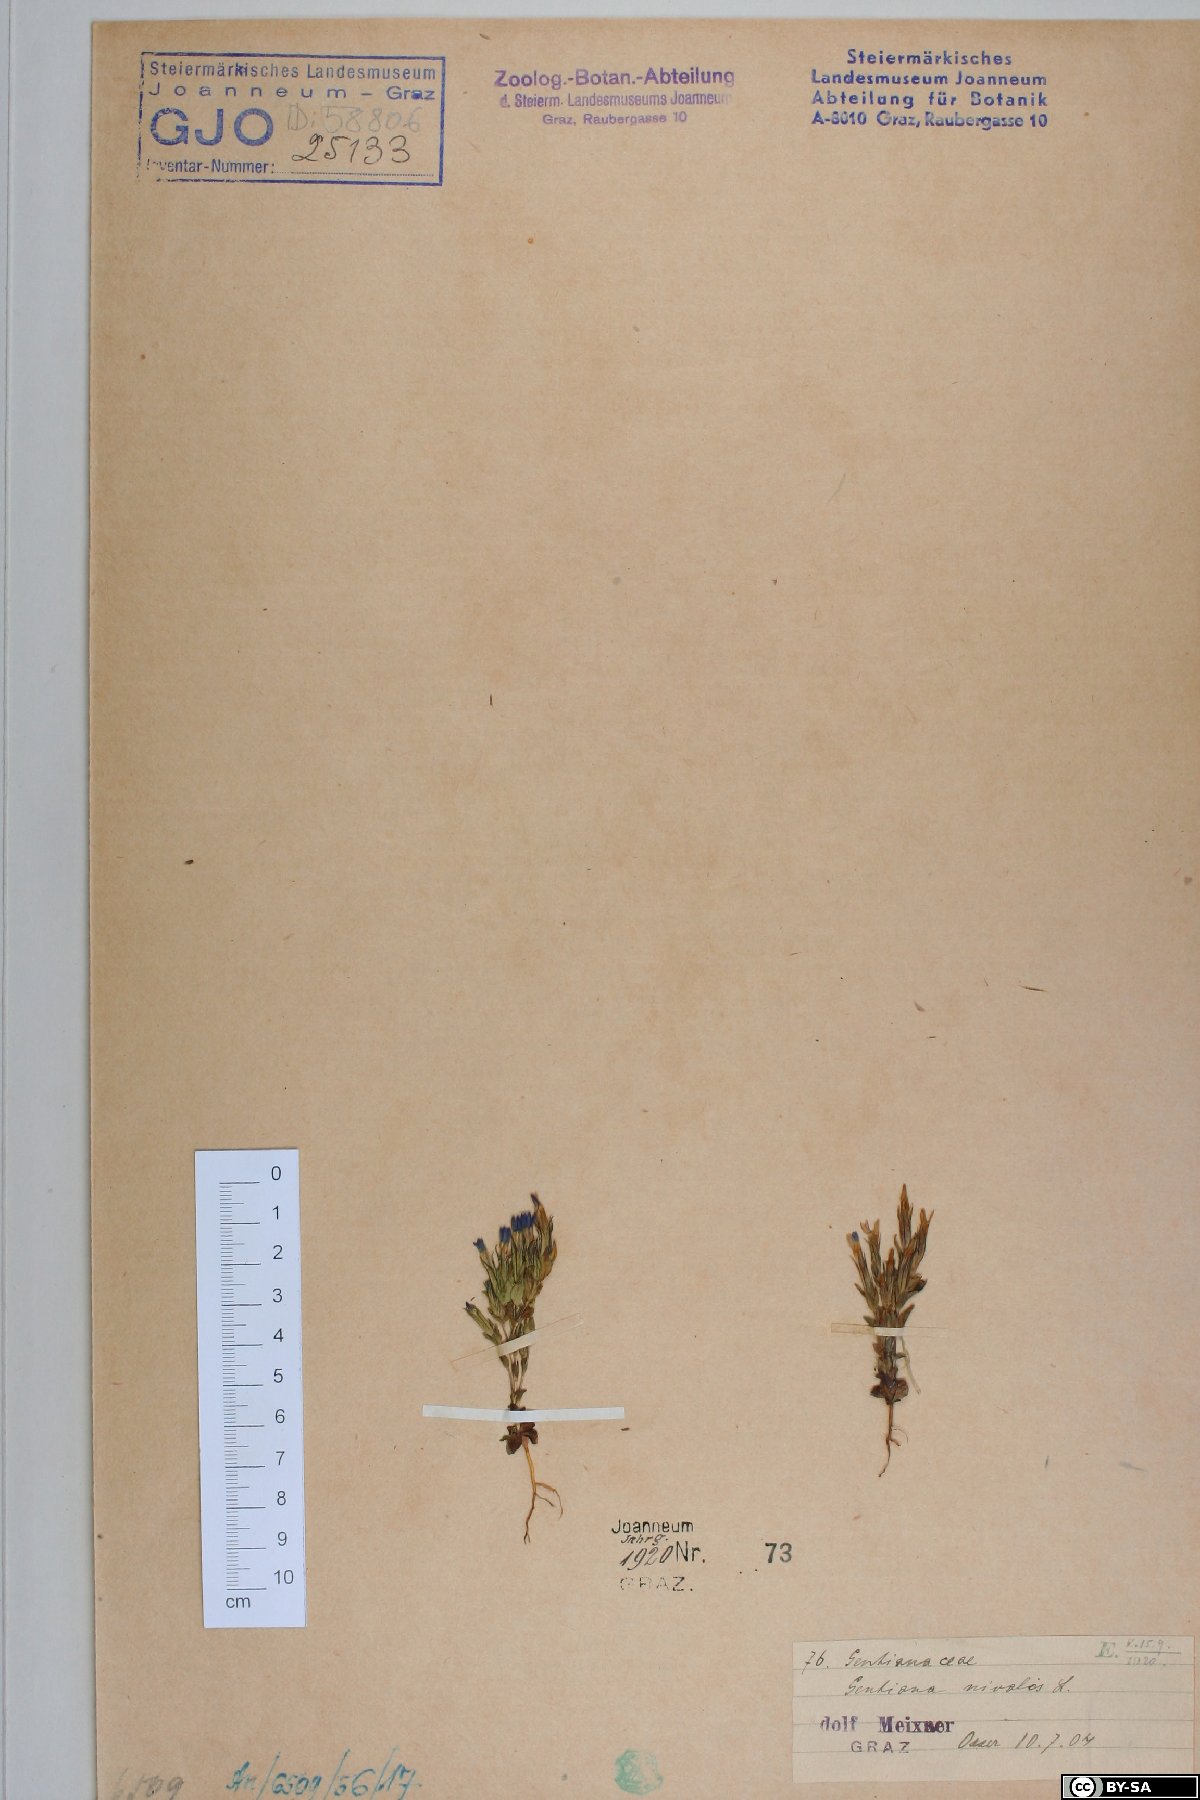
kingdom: Plantae
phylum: Tracheophyta
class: Magnoliopsida
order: Gentianales
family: Gentianaceae
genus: Gentiana
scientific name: Gentiana nivalis
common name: Alpine gentian
